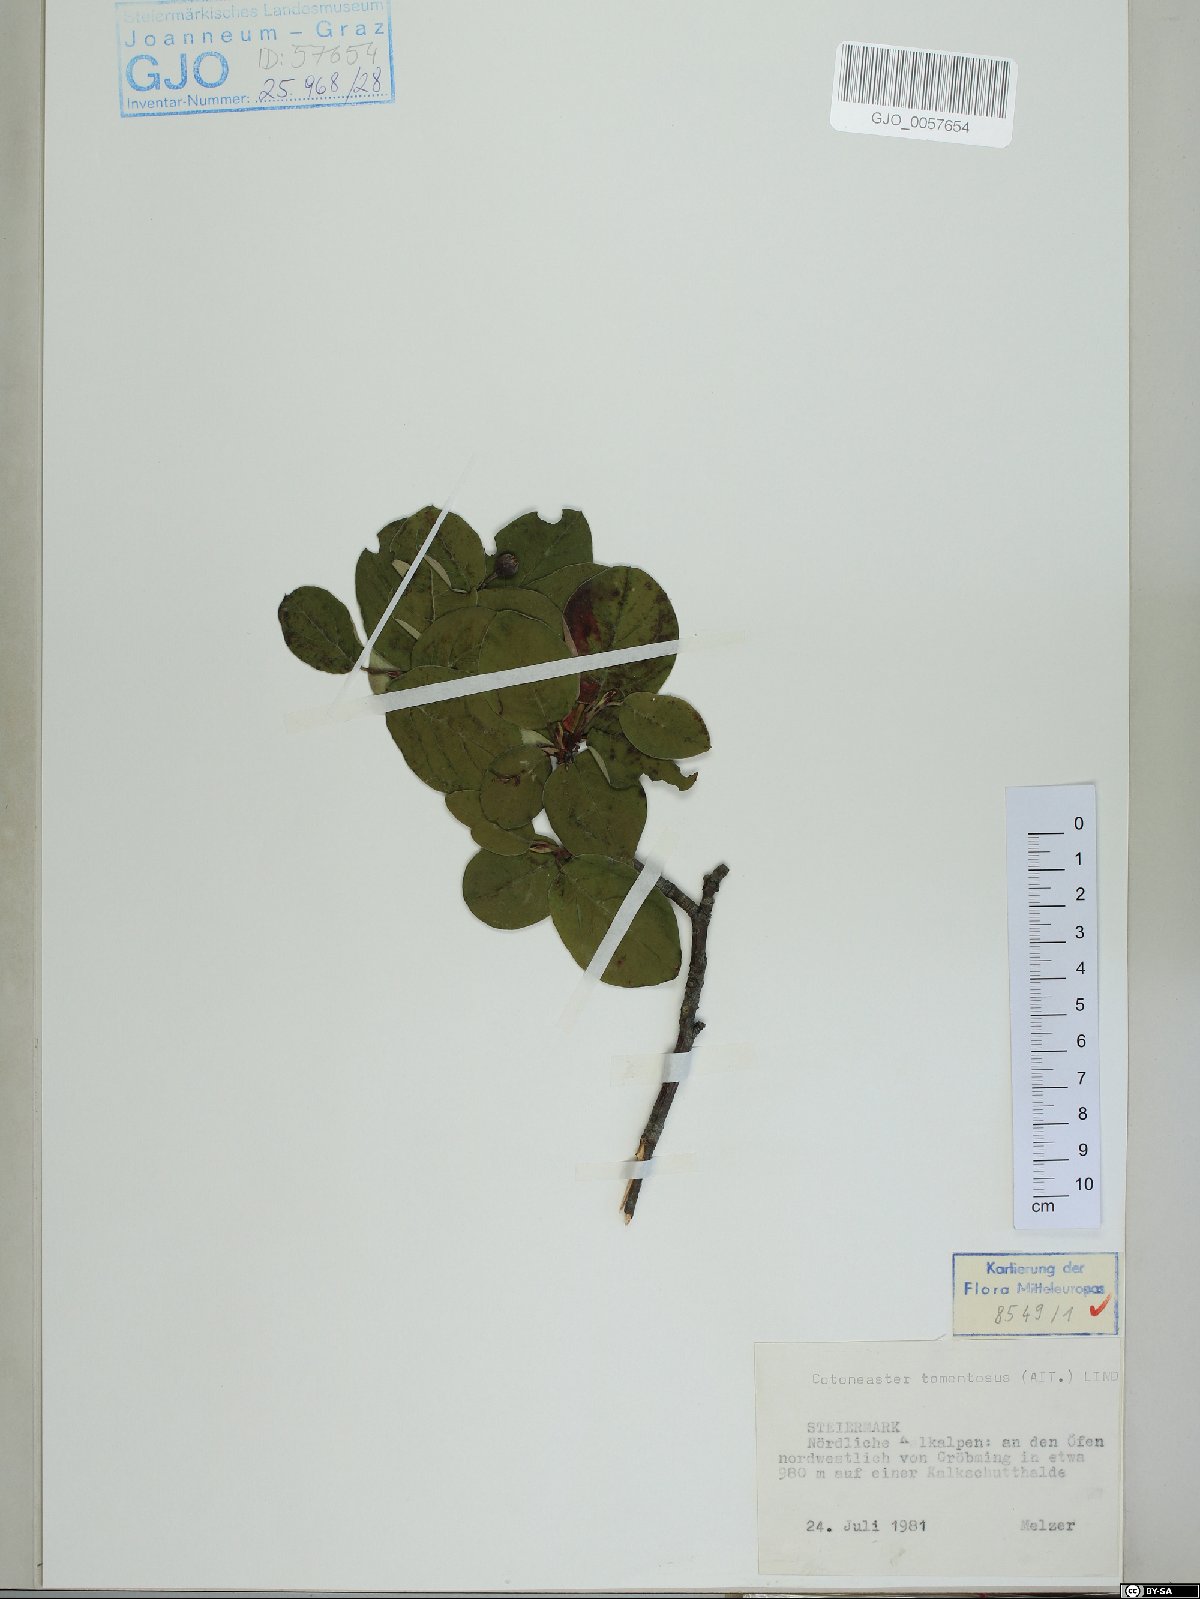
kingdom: Plantae
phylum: Tracheophyta
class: Magnoliopsida
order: Rosales
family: Rosaceae
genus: Cotoneaster
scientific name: Cotoneaster tomentosus
